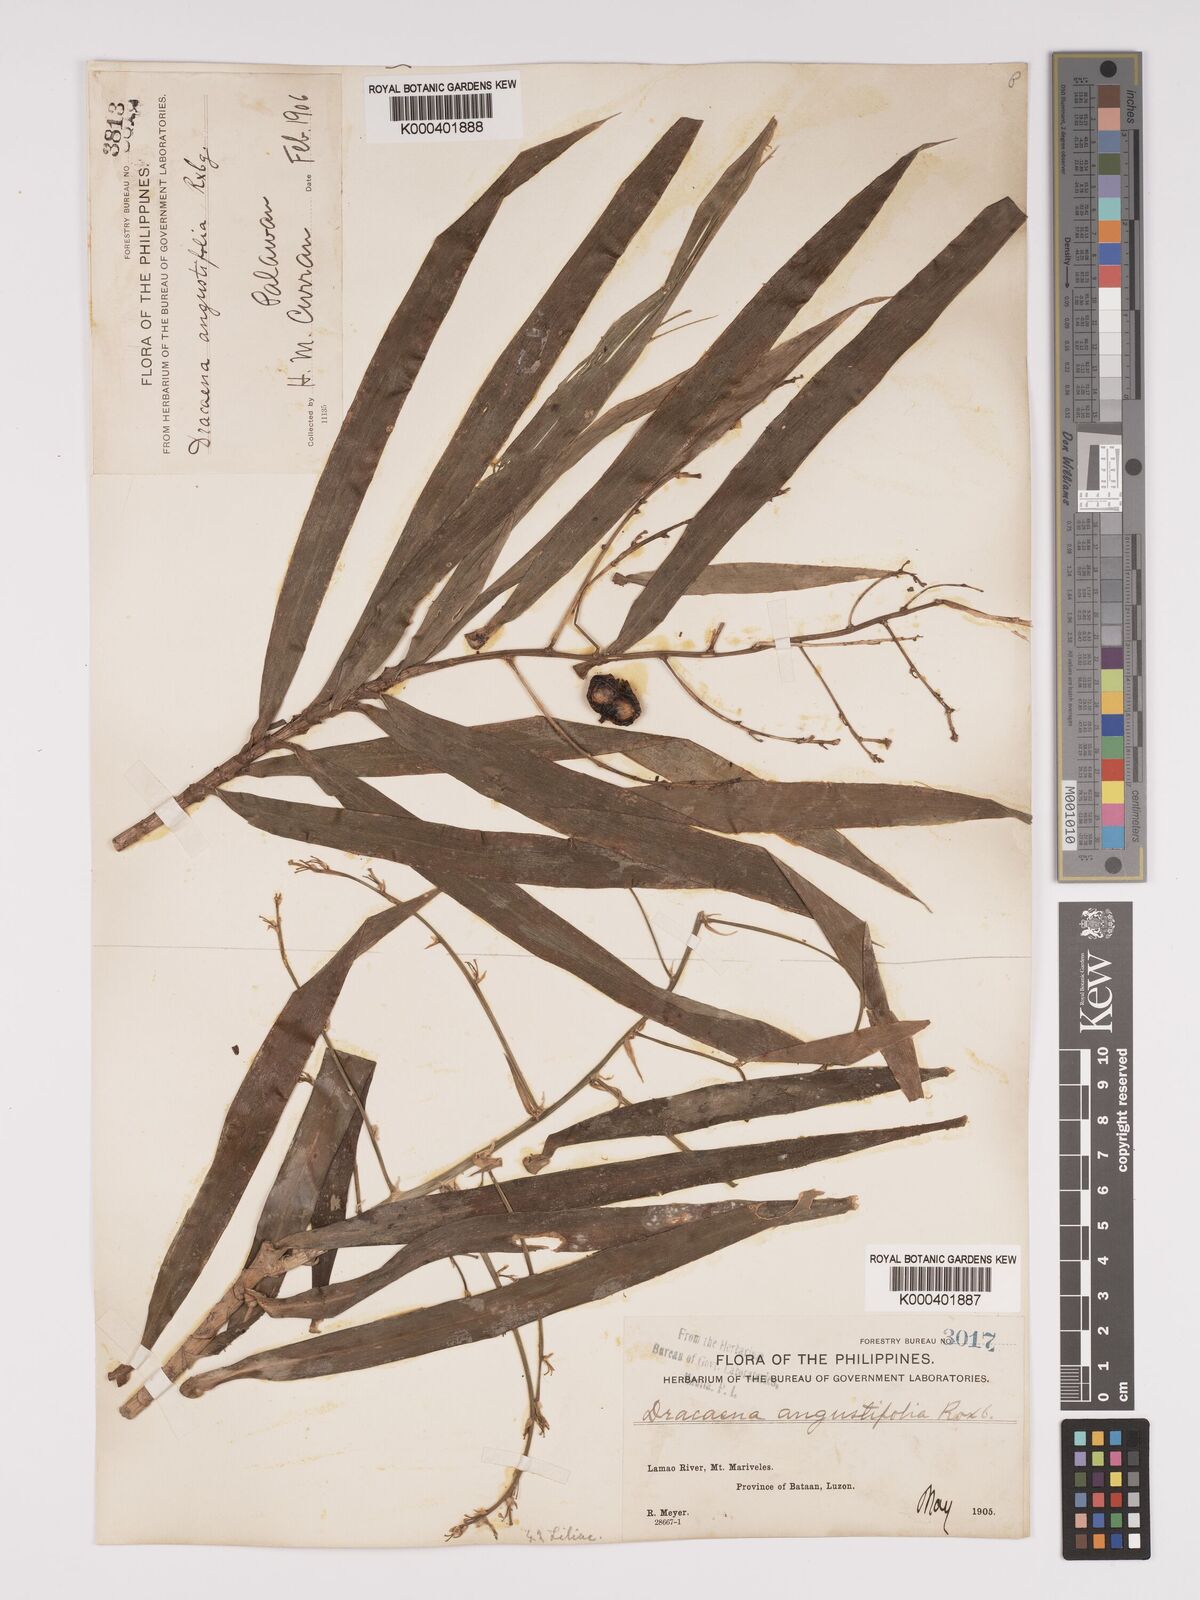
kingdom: Plantae
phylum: Tracheophyta
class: Liliopsida
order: Asparagales
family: Asparagaceae
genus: Dracaena
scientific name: Dracaena angustifolia
